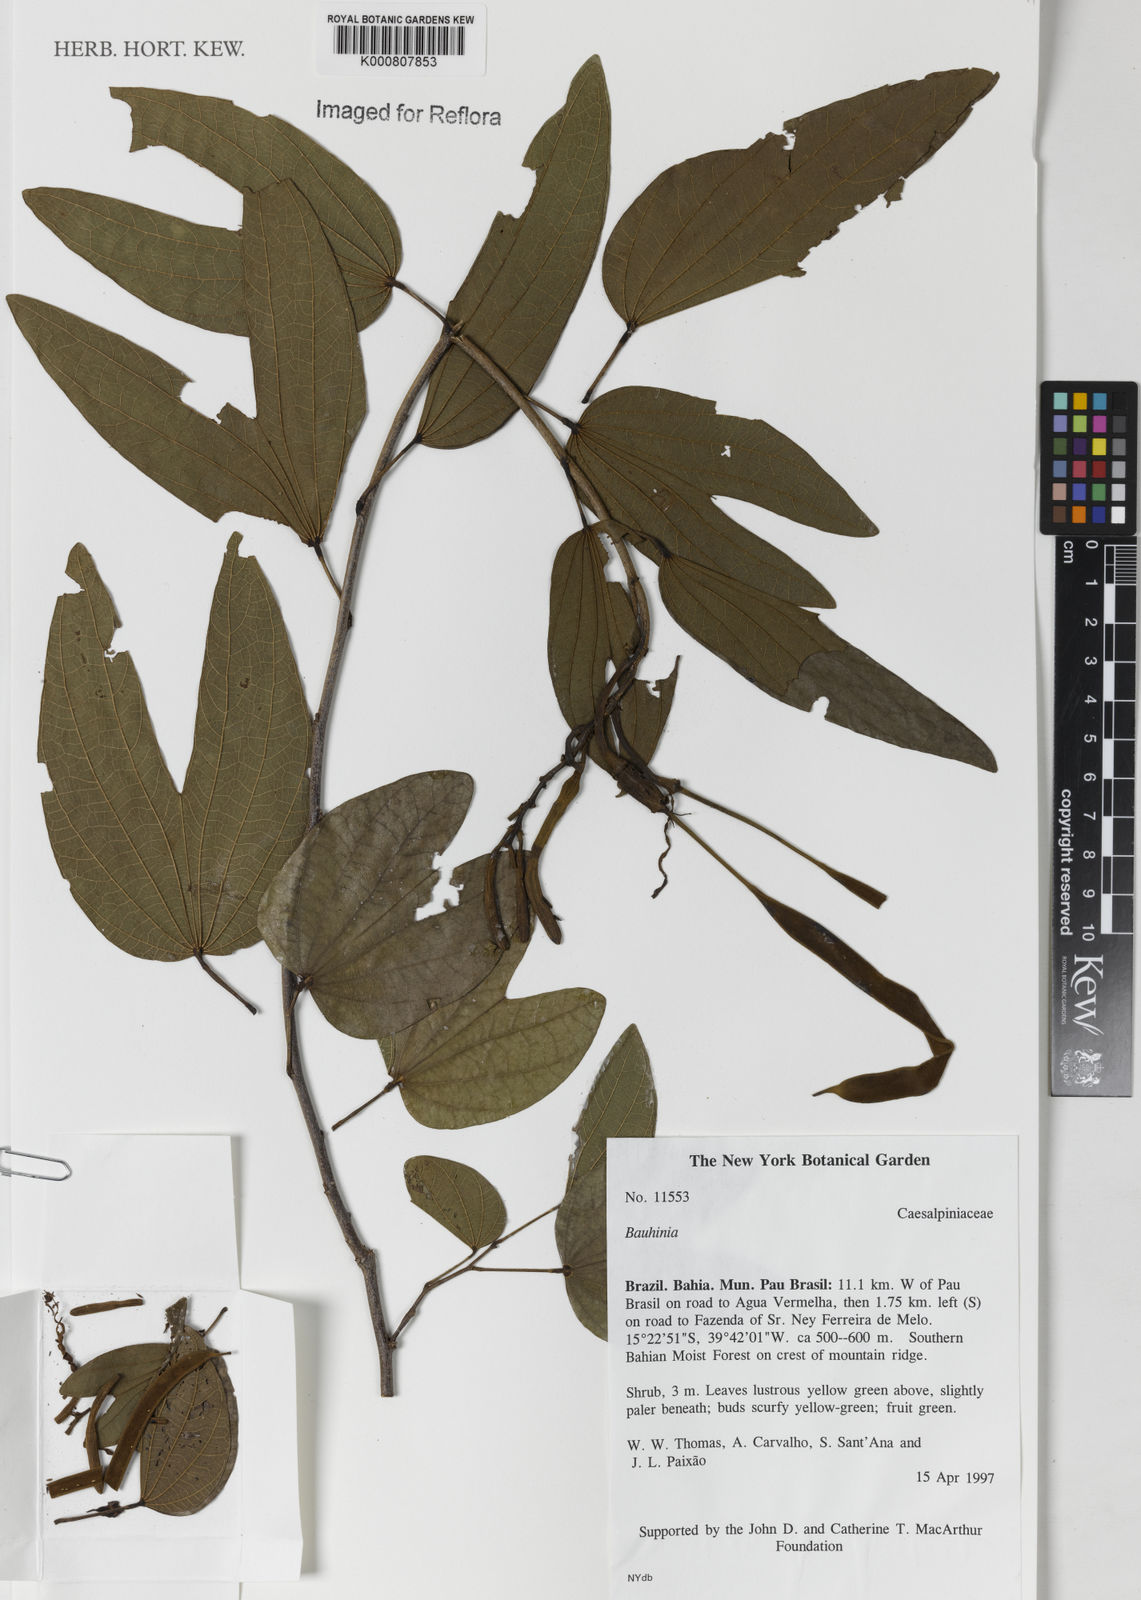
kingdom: Plantae
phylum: Tracheophyta
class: Magnoliopsida
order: Fabales
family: Fabaceae
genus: Bauhinia
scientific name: Bauhinia
